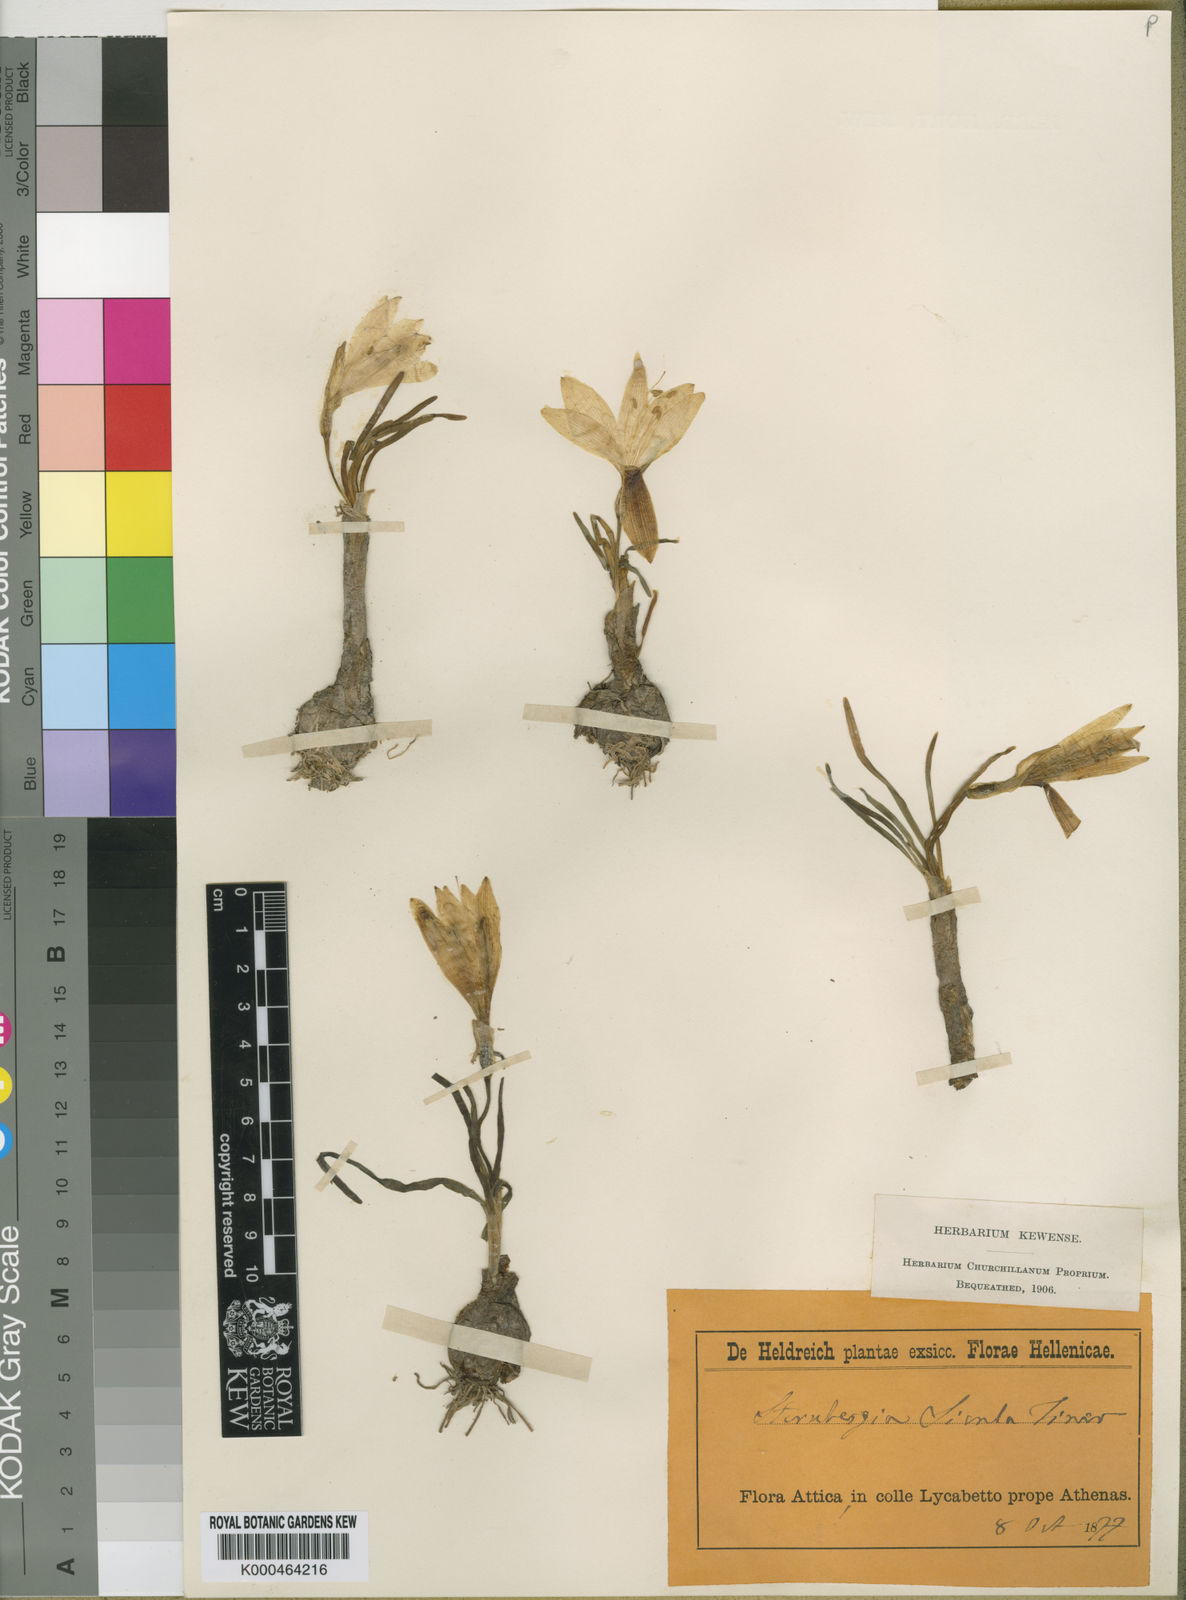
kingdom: Plantae
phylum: Tracheophyta
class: Liliopsida
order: Asparagales
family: Amaryllidaceae
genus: Sternbergia
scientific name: Sternbergia
